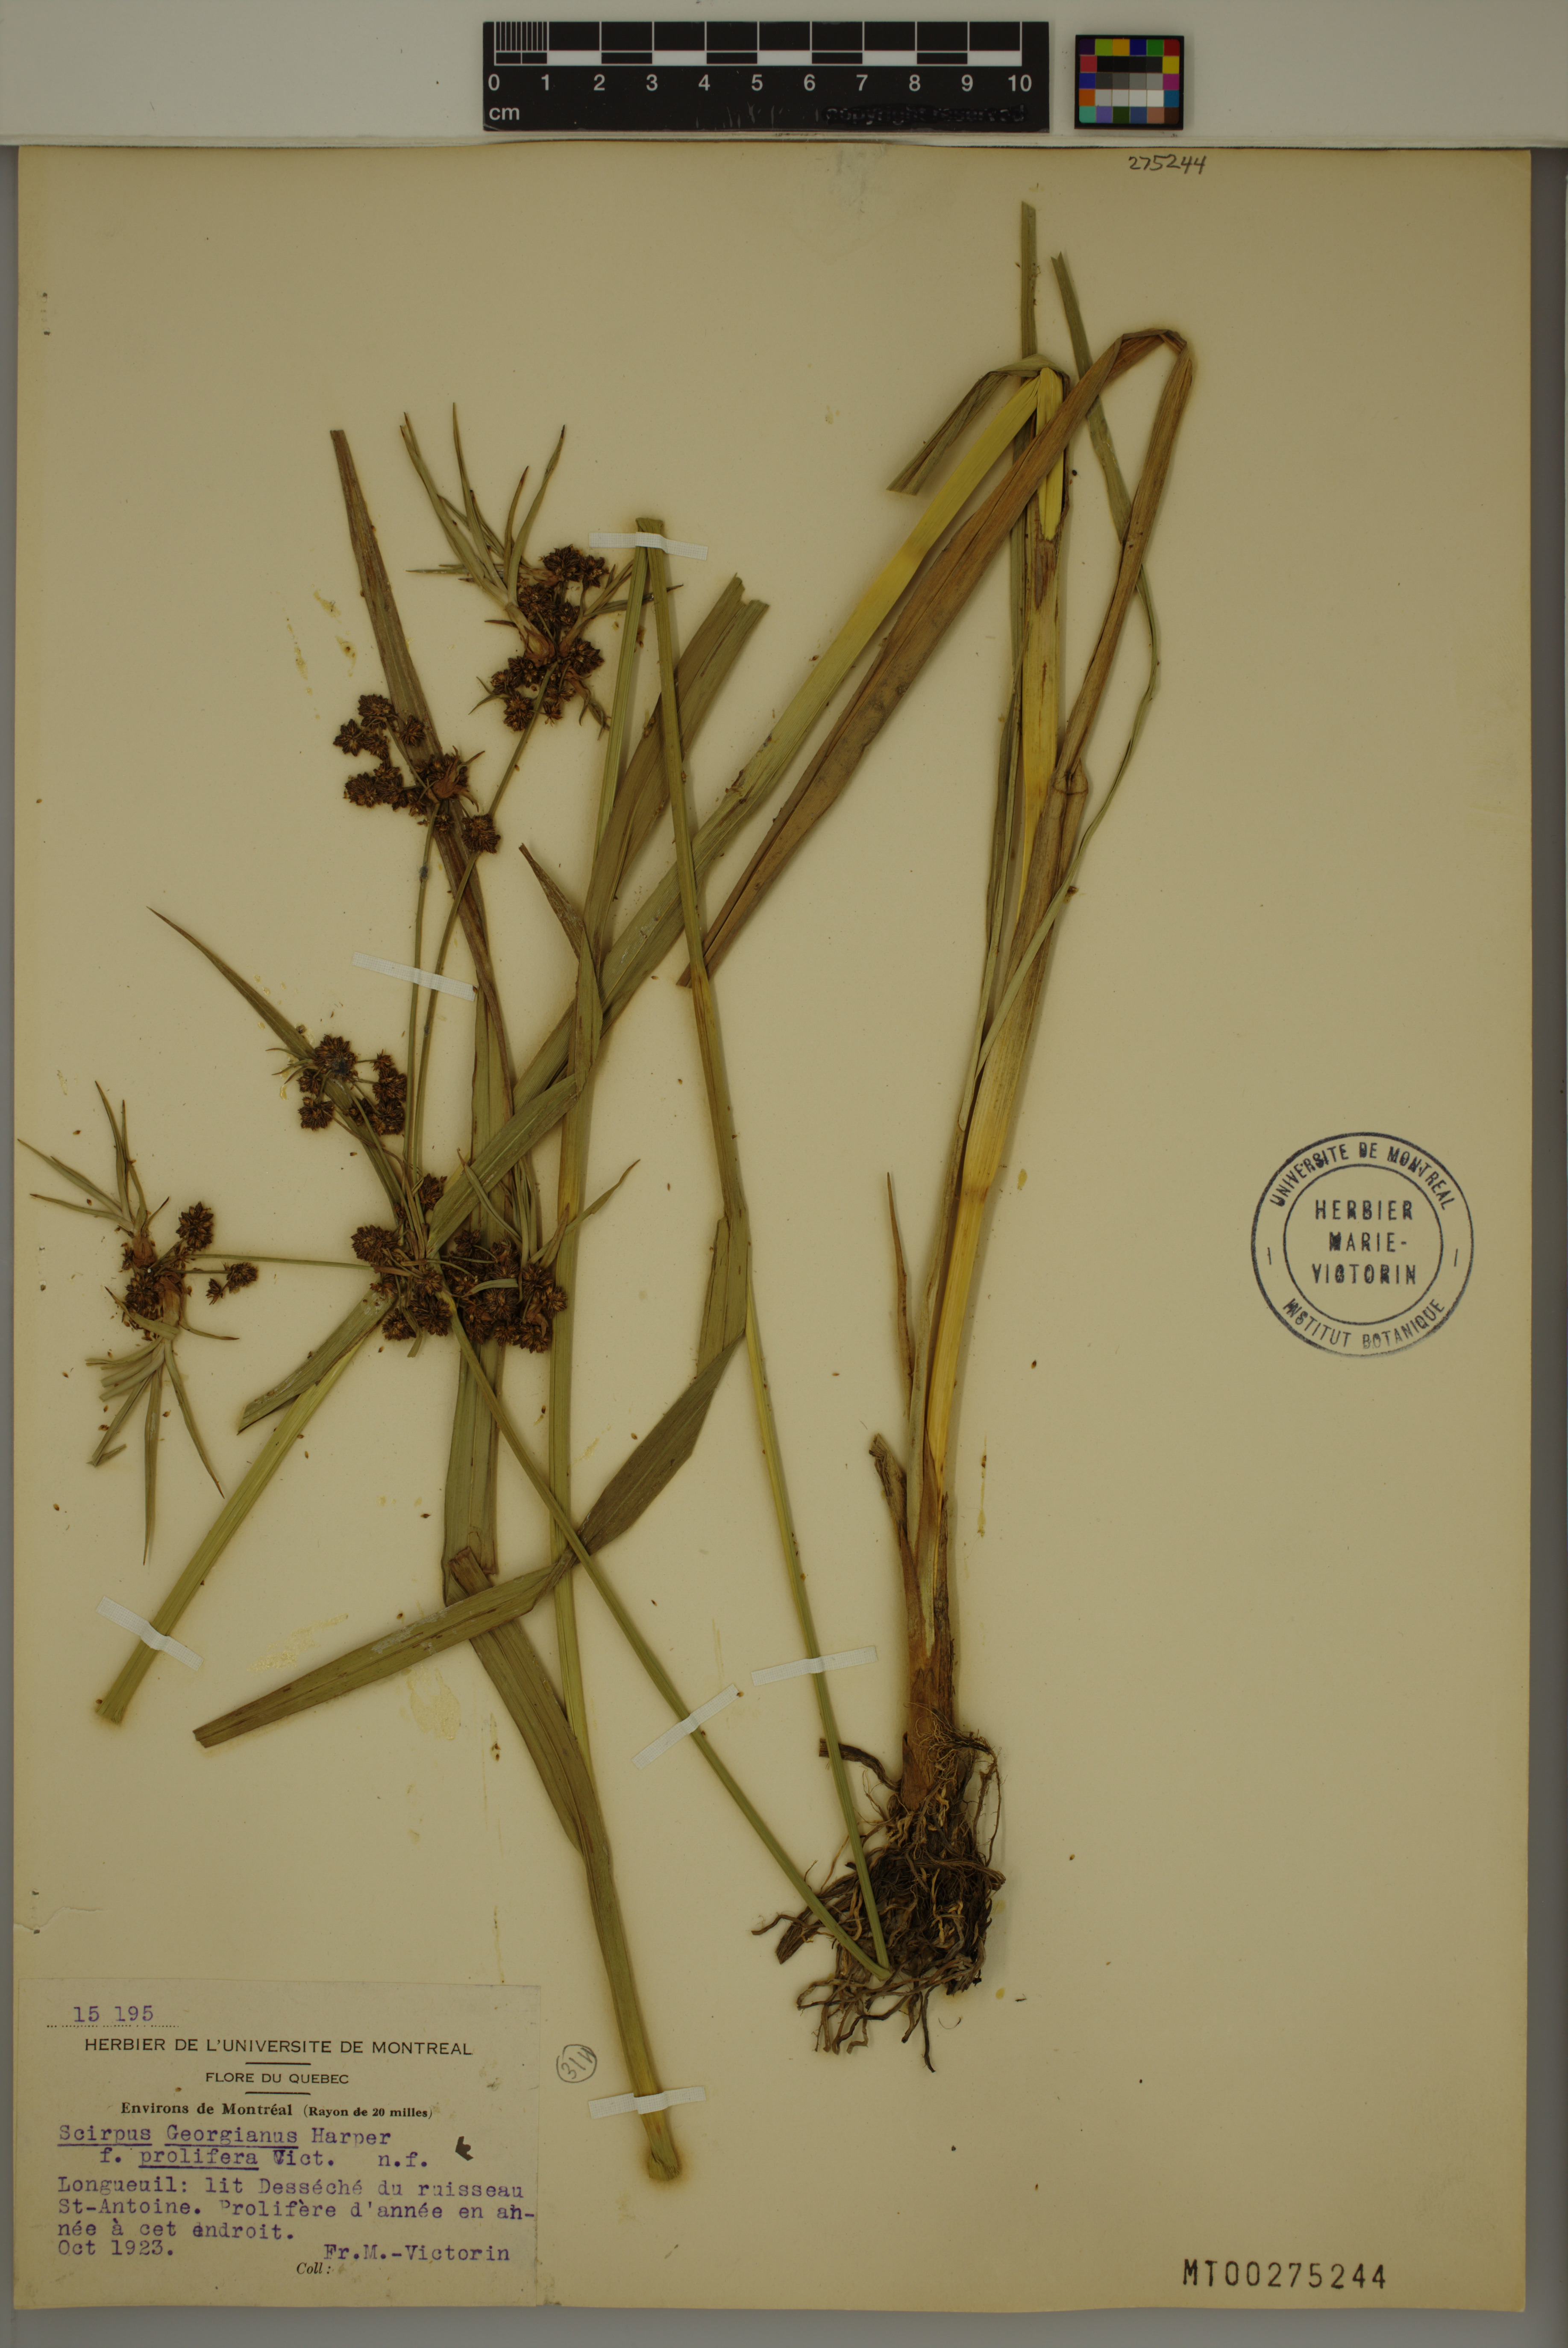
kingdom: Plantae
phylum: Tracheophyta
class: Liliopsida
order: Poales
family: Cyperaceae
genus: Scirpus
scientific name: Scirpus hattorianus
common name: Early dark-green bulrush
